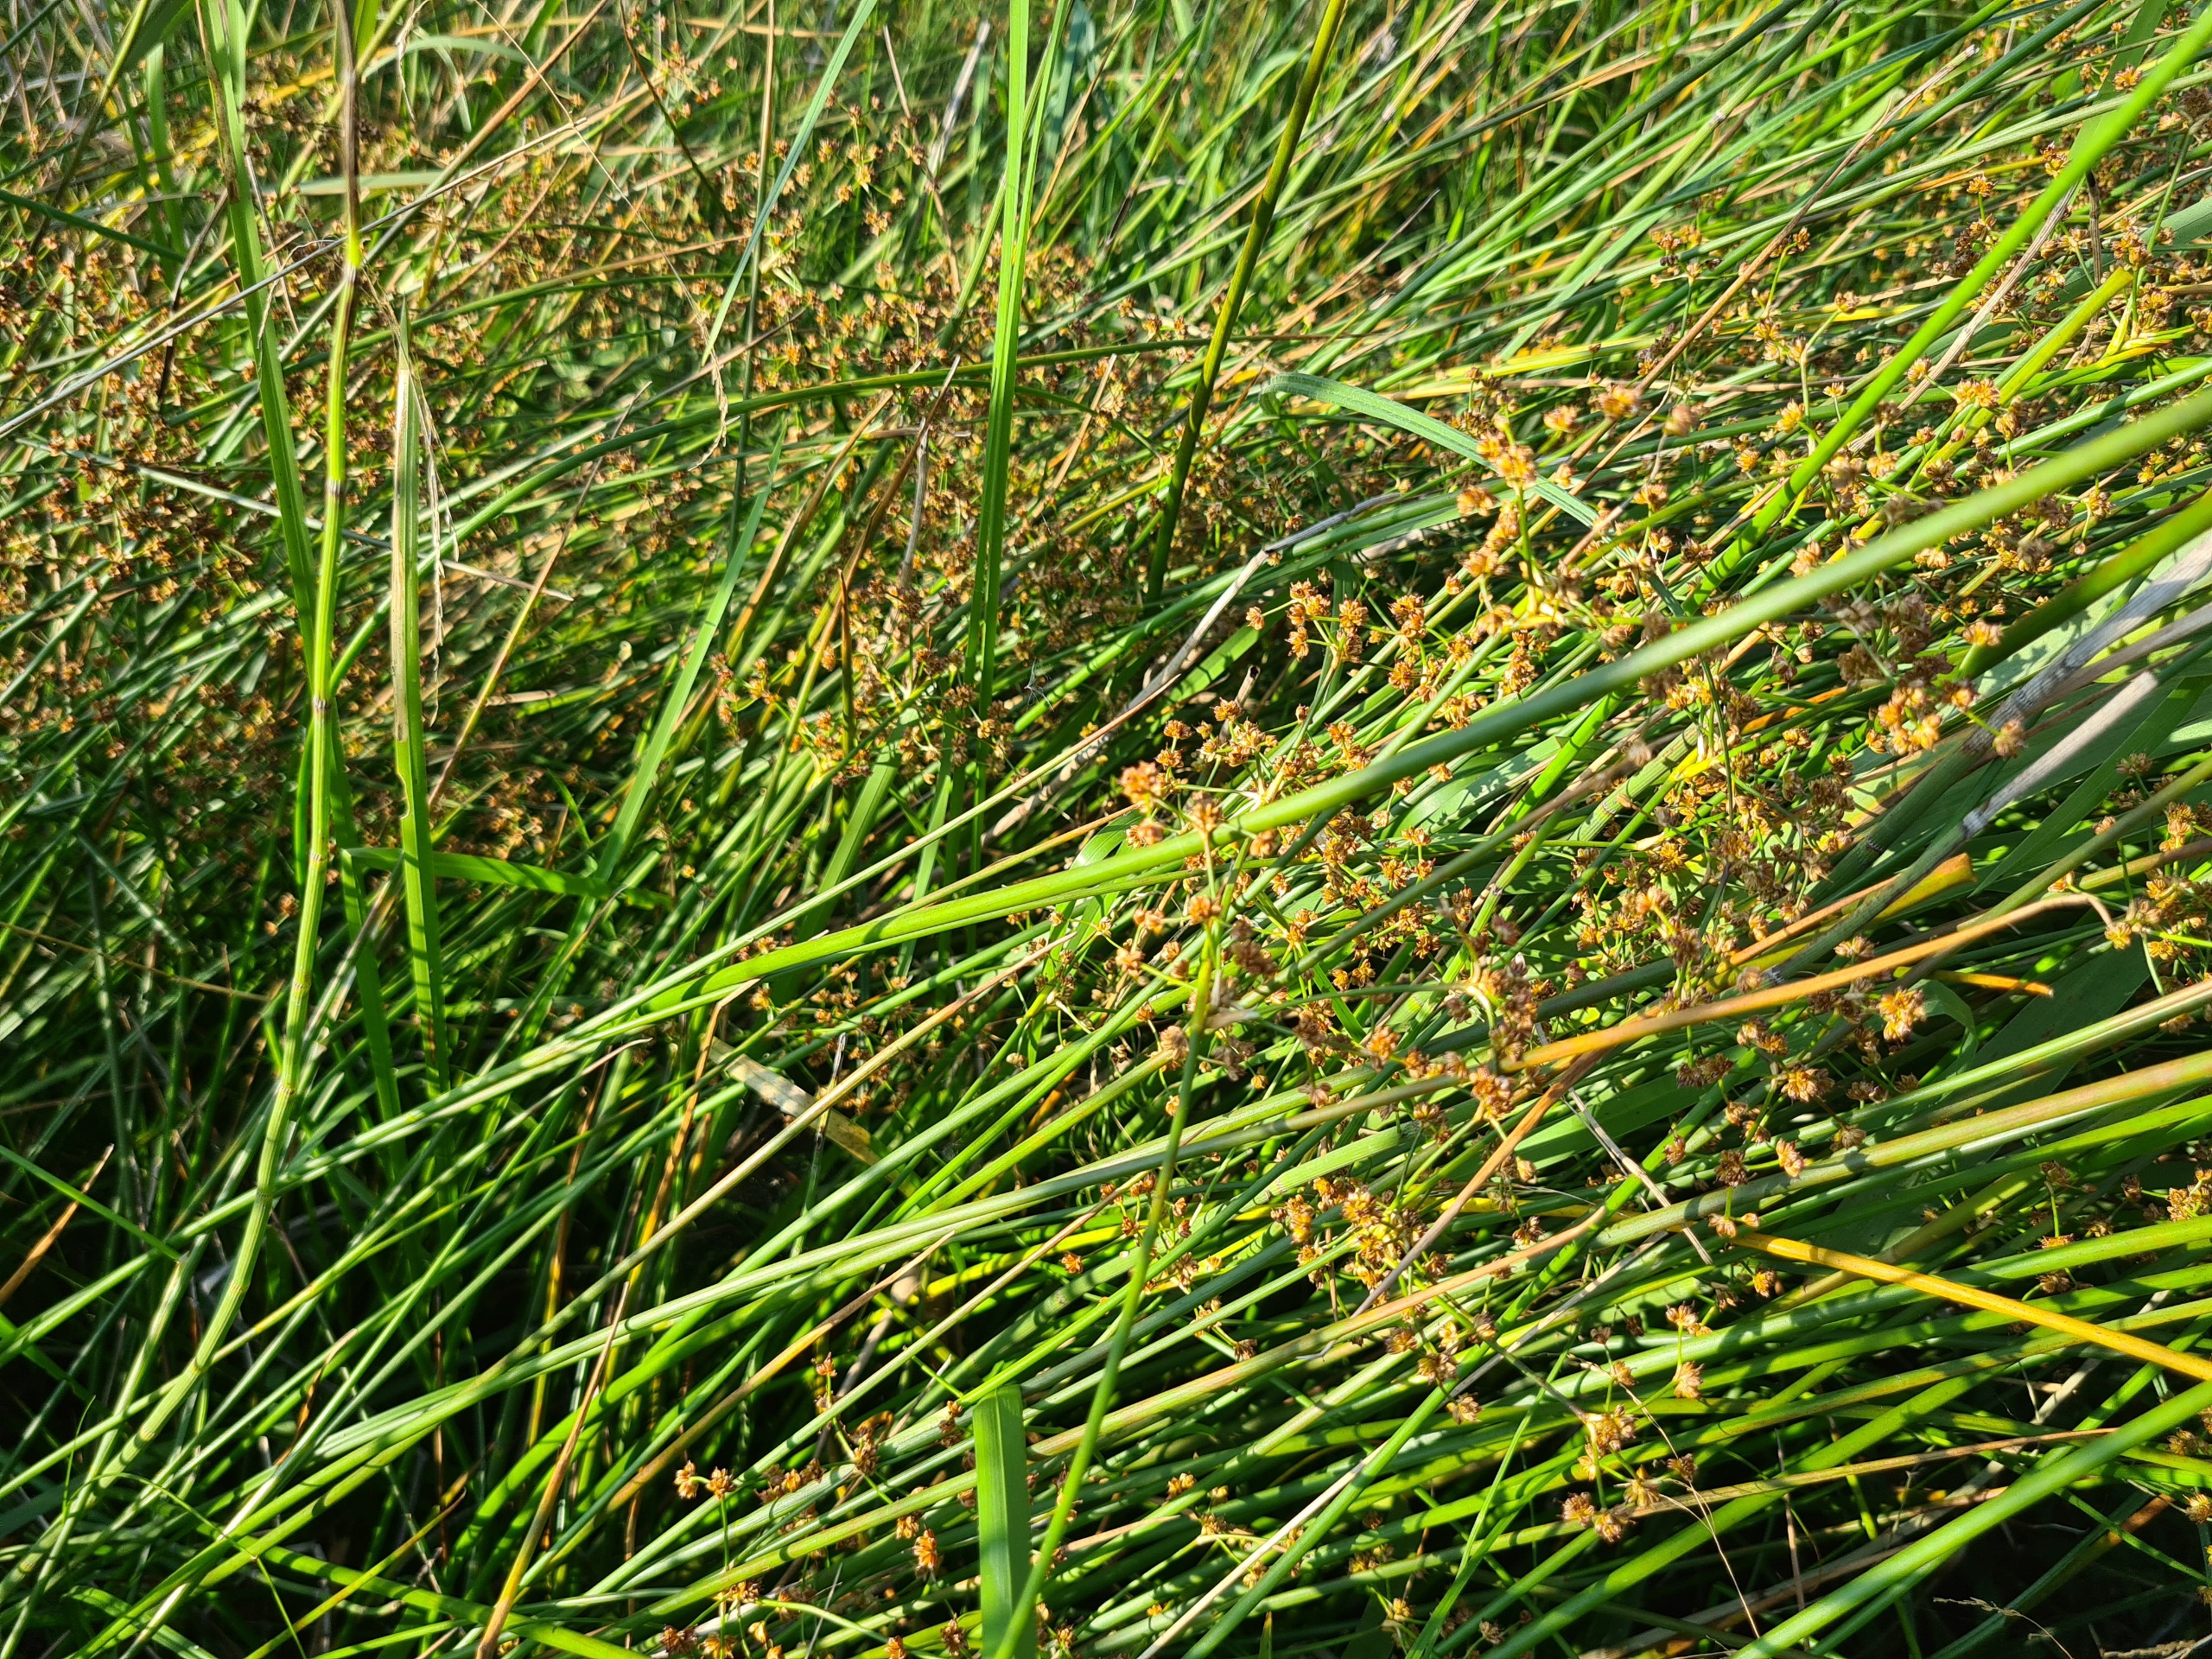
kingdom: Plantae
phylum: Tracheophyta
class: Liliopsida
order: Poales
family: Juncaceae
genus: Juncus
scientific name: Juncus subnodulosus
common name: Butblomstret siv
